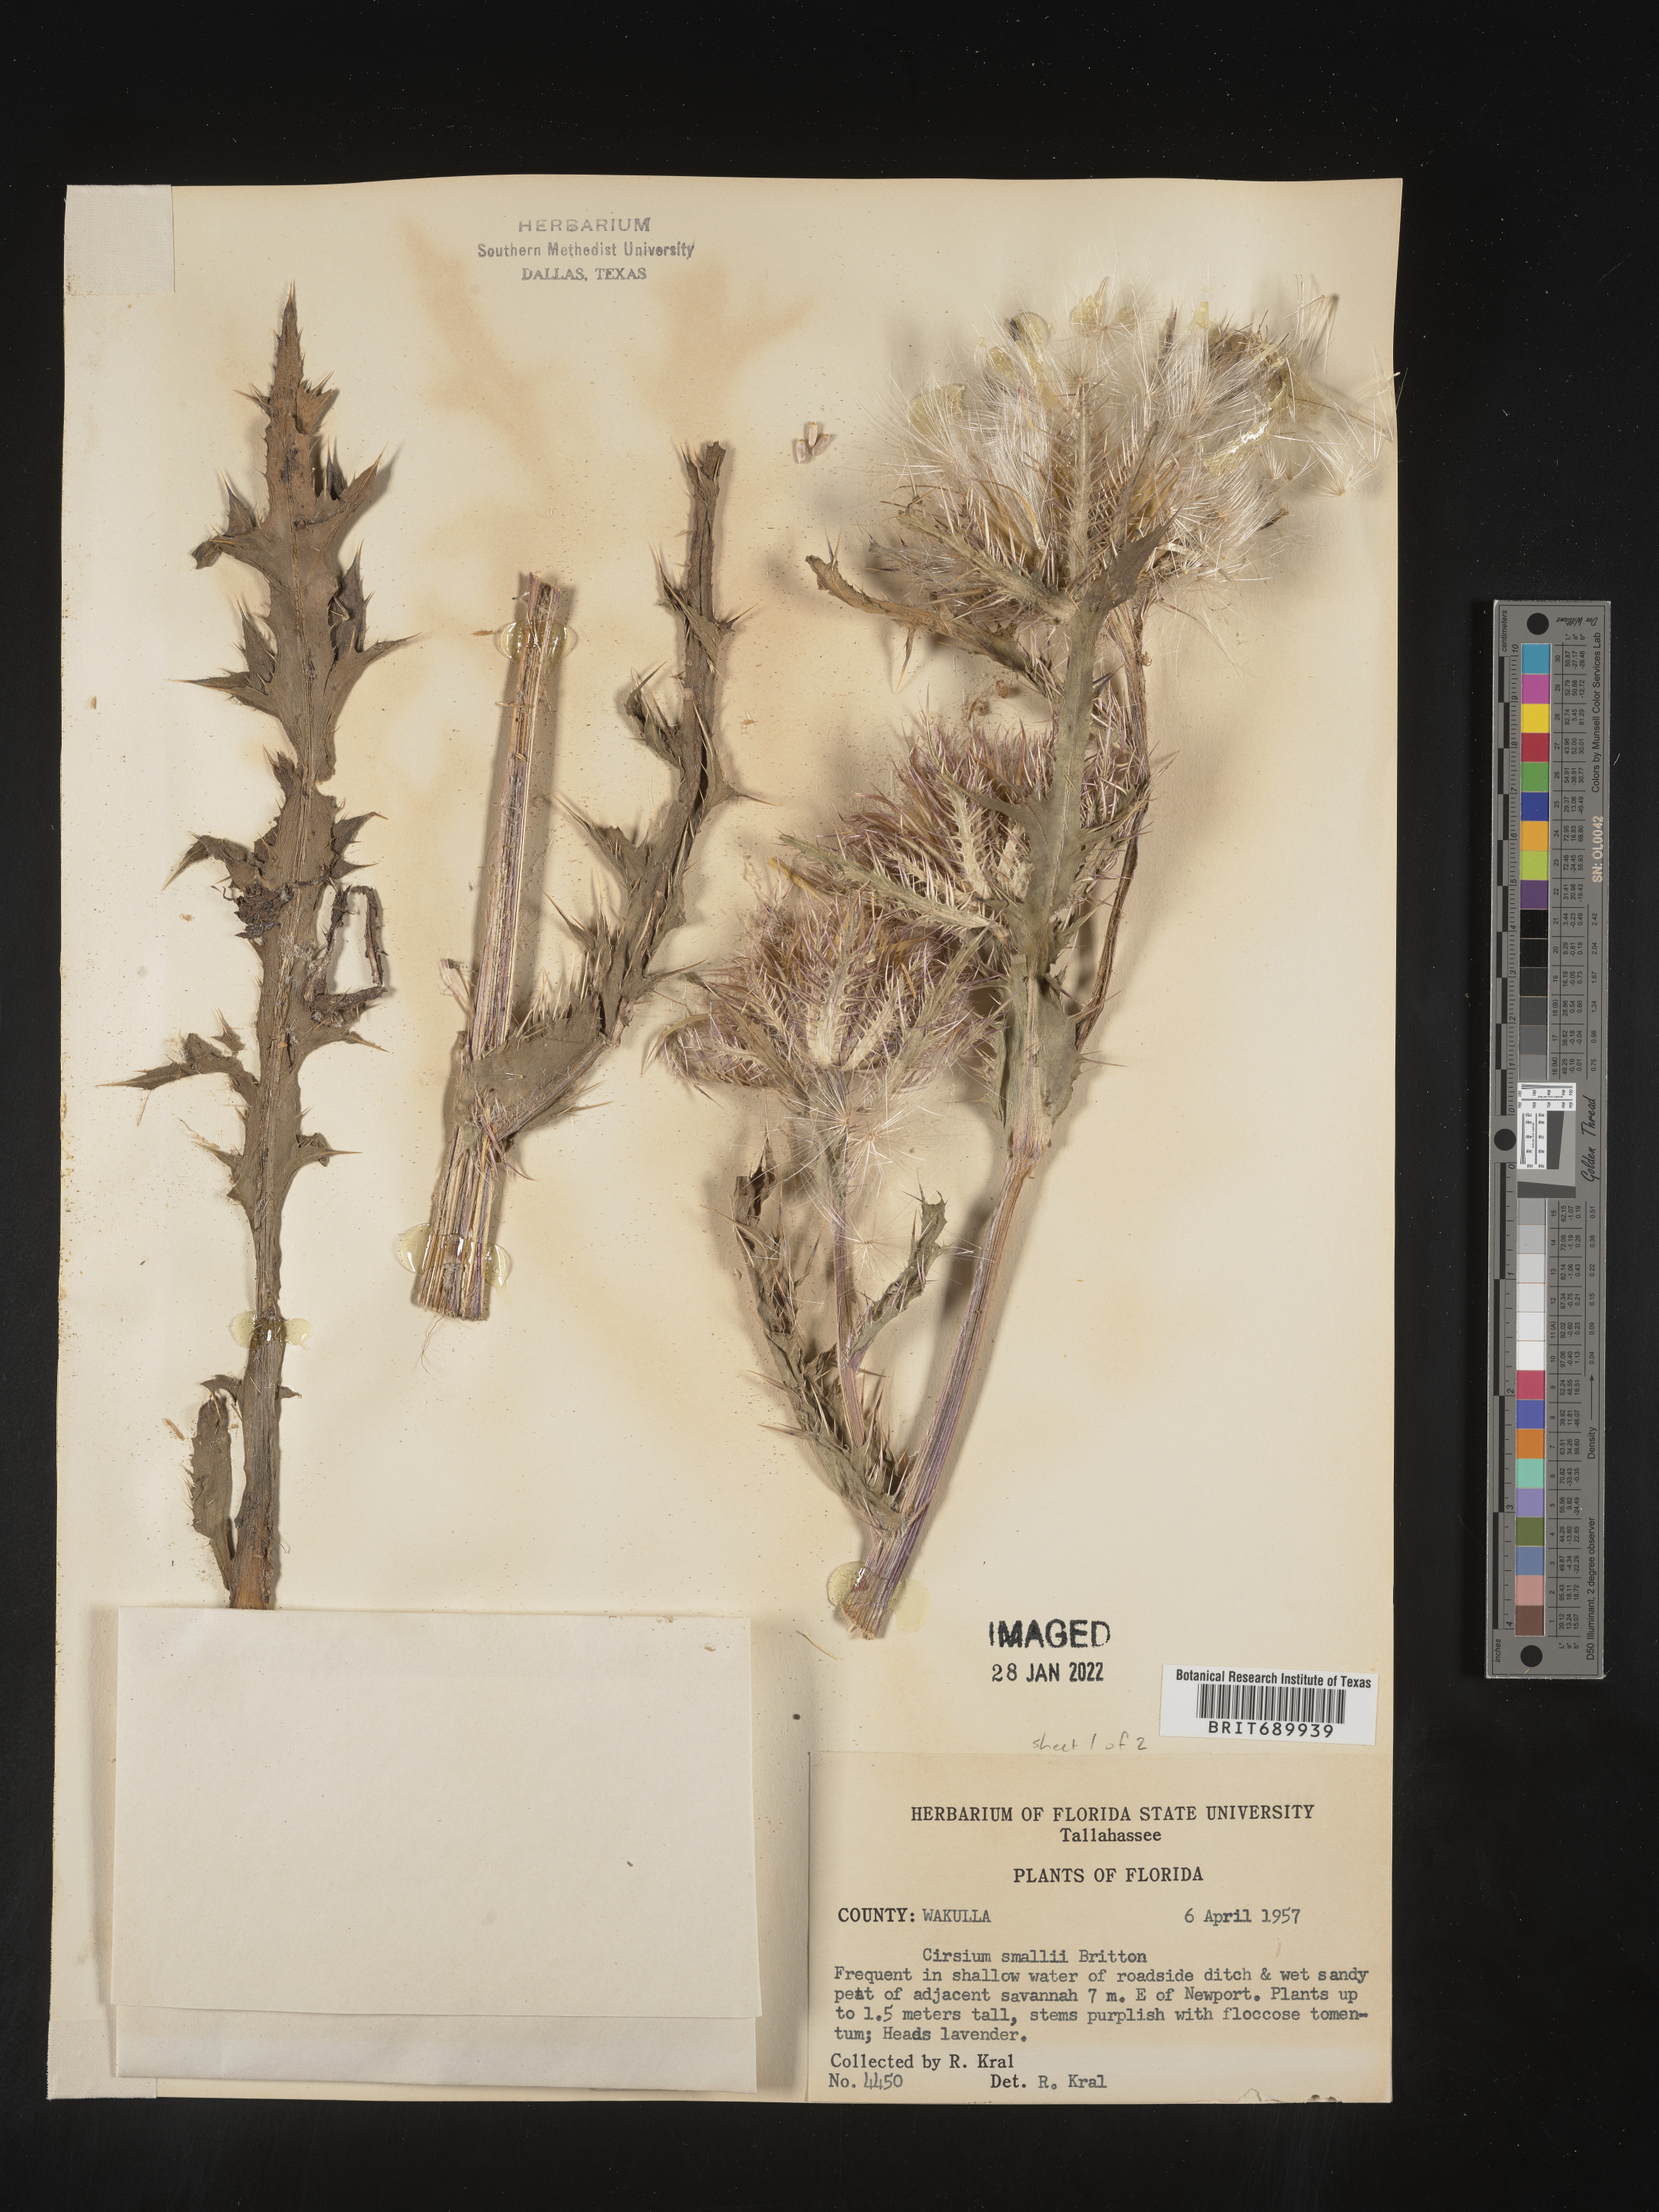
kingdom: Plantae
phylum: Tracheophyta
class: Magnoliopsida
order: Asterales
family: Asteraceae
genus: Cirsium
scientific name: Cirsium horridulum
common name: Bristly thistle
